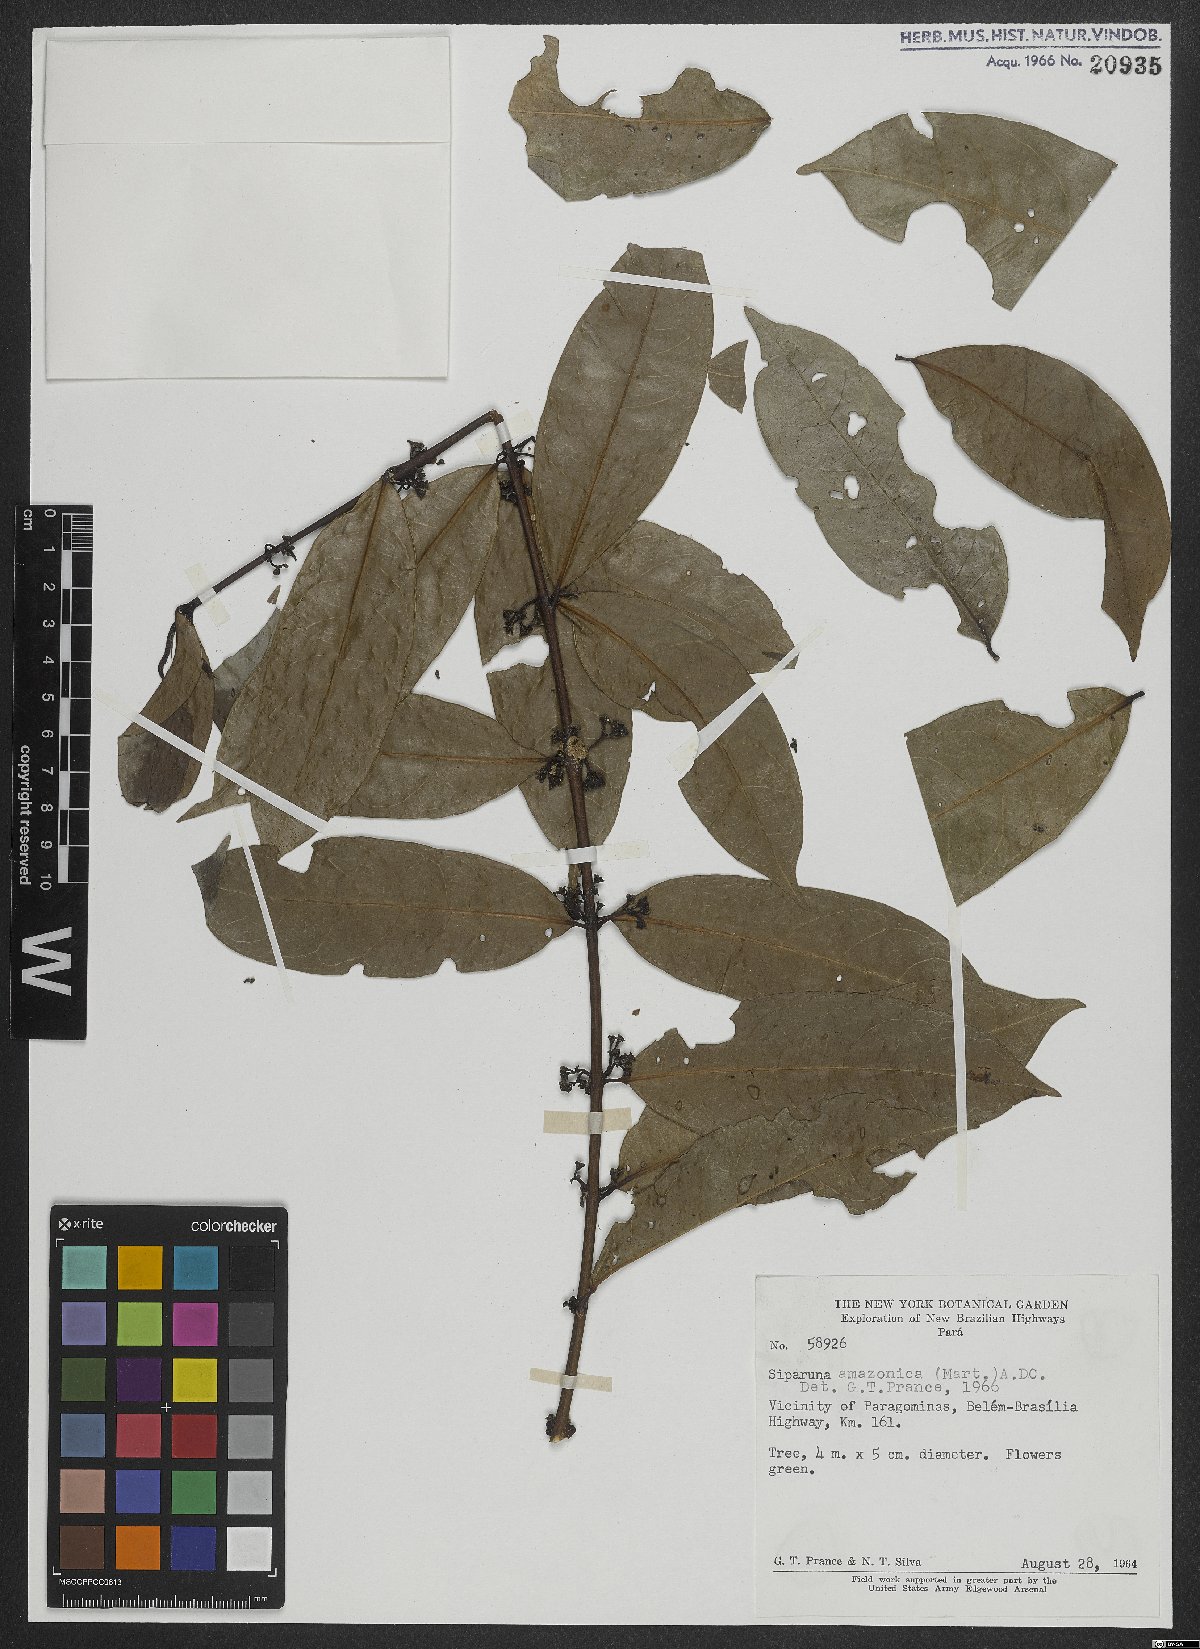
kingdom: Plantae
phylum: Tracheophyta
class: Magnoliopsida
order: Laurales
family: Siparunaceae
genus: Siparuna
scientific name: Siparuna poeppigii
